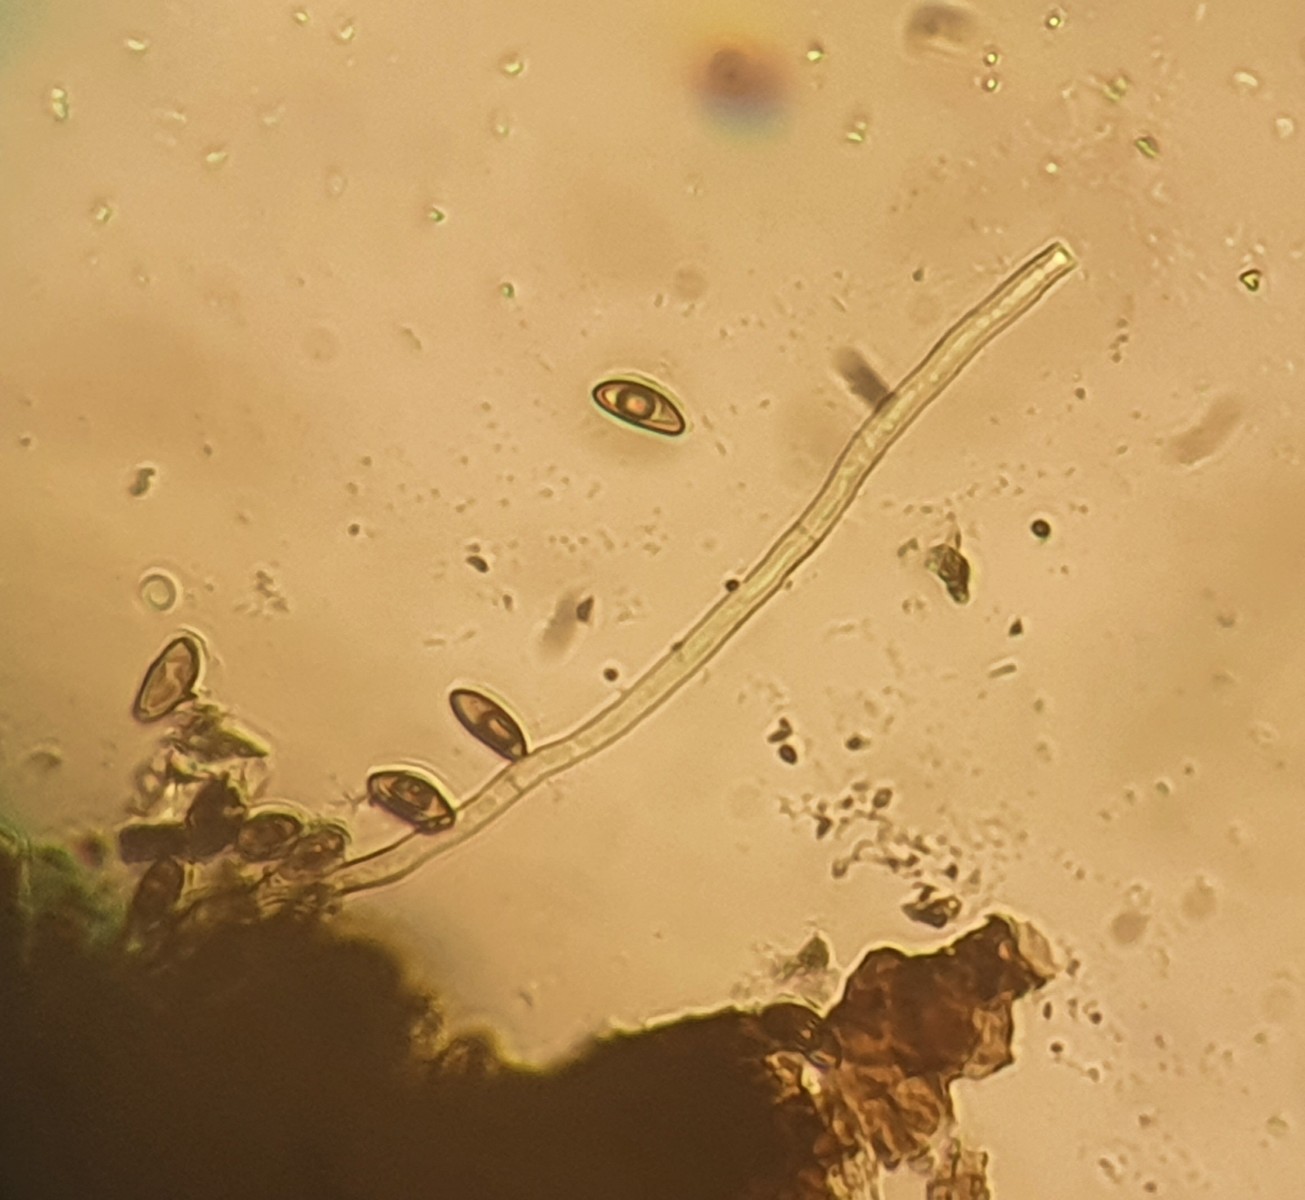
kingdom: Fungi
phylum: Ascomycota
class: Sordariomycetes
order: Xylariales
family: Hypoxylaceae
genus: Jackrogersella
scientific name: Jackrogersella
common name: kulbær
